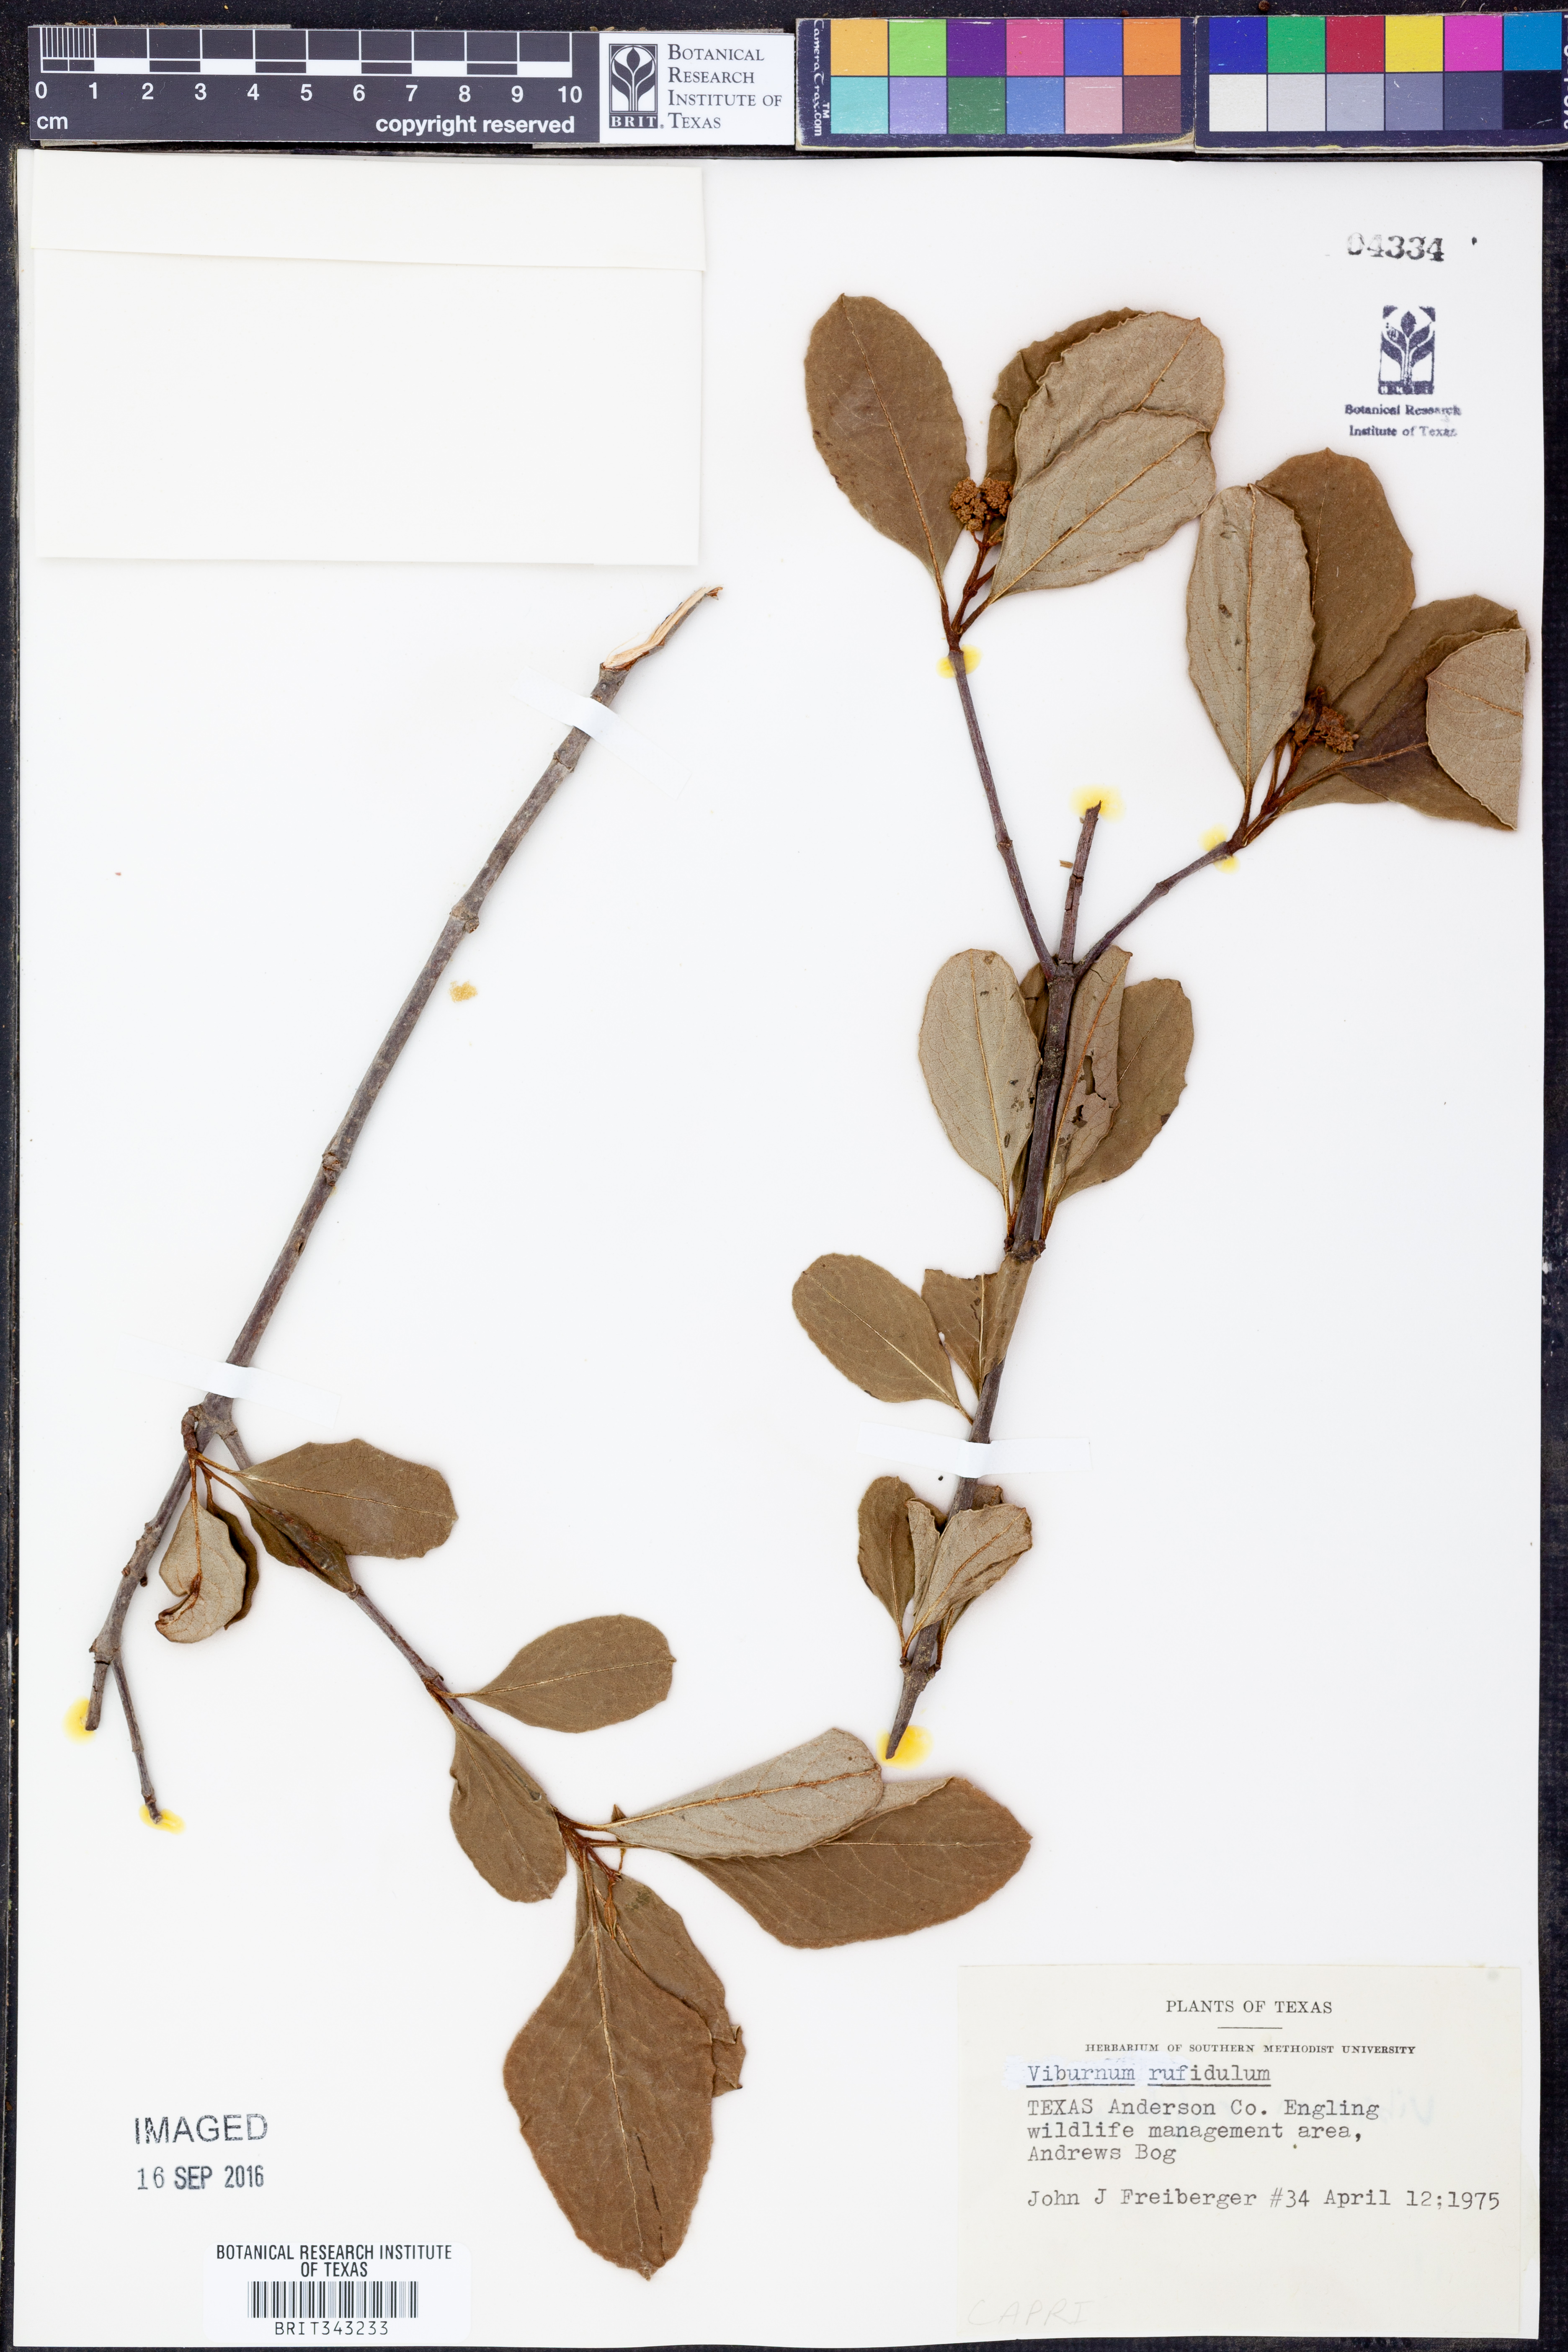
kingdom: Plantae
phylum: Tracheophyta
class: Magnoliopsida
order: Dipsacales
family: Viburnaceae
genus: Viburnum
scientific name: Viburnum rufidulum
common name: Blue haw
